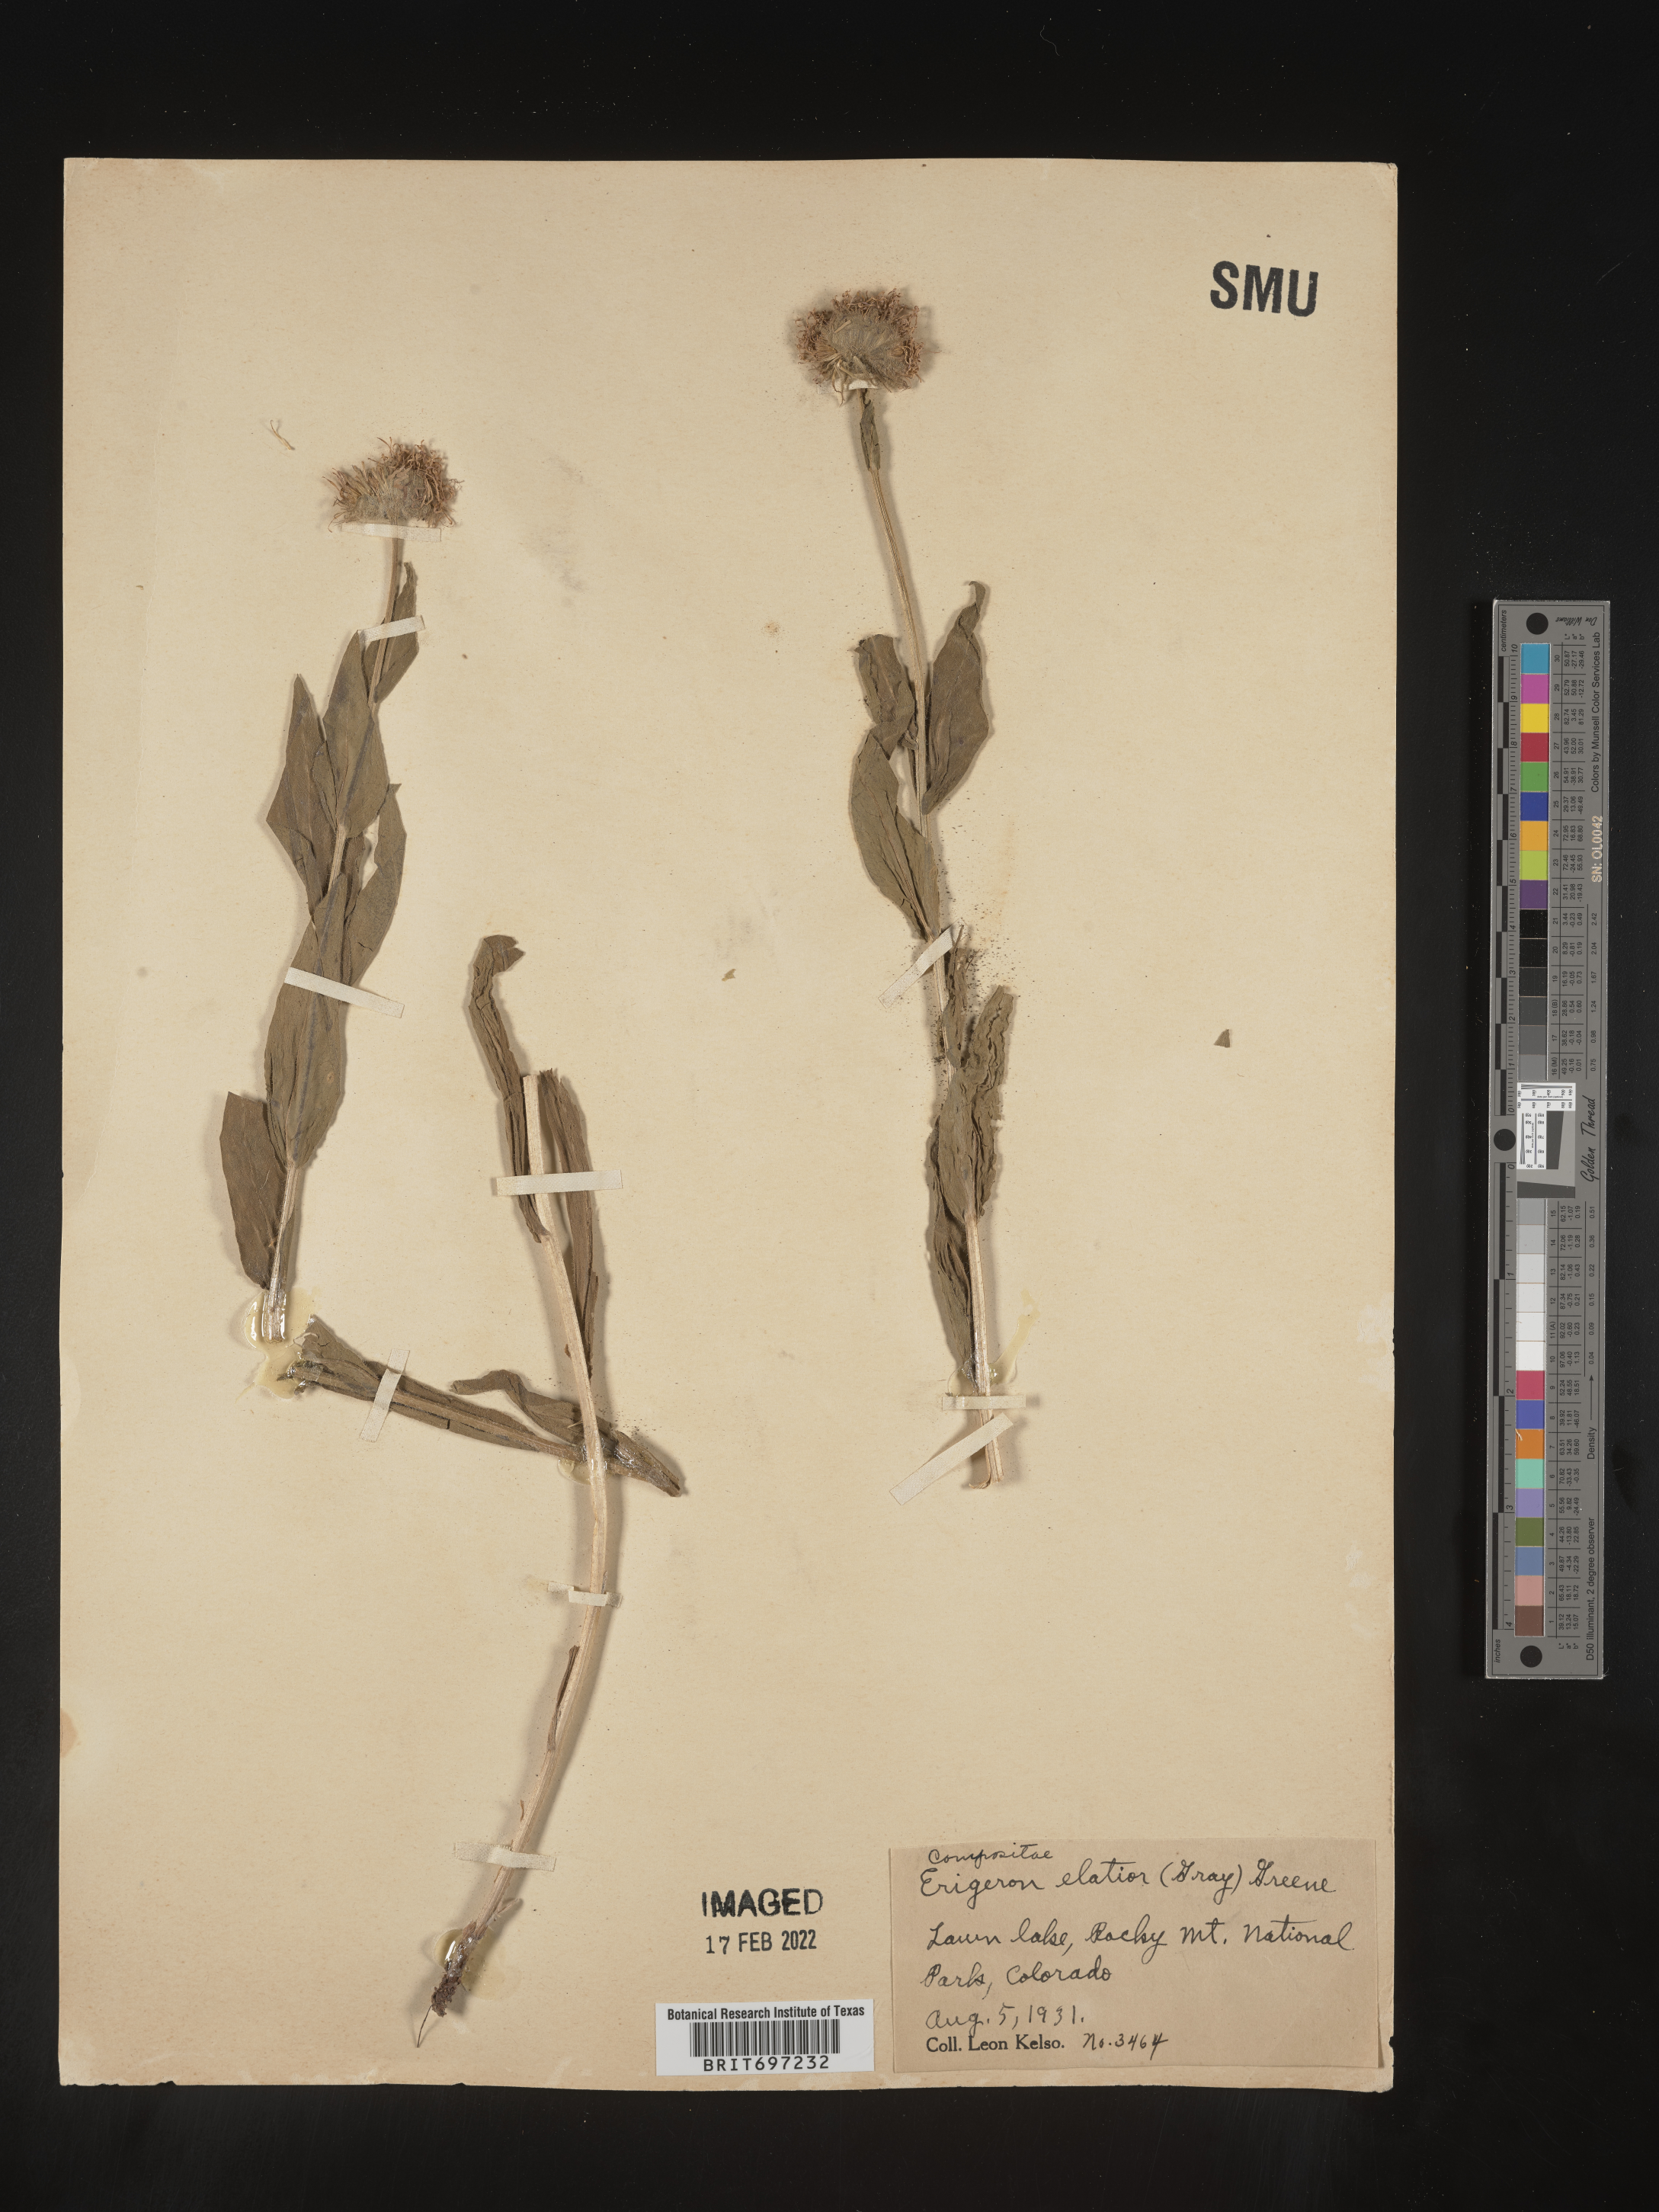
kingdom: Plantae
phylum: Tracheophyta
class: Magnoliopsida
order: Asterales
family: Asteraceae
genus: Erigeron
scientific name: Erigeron elatior
